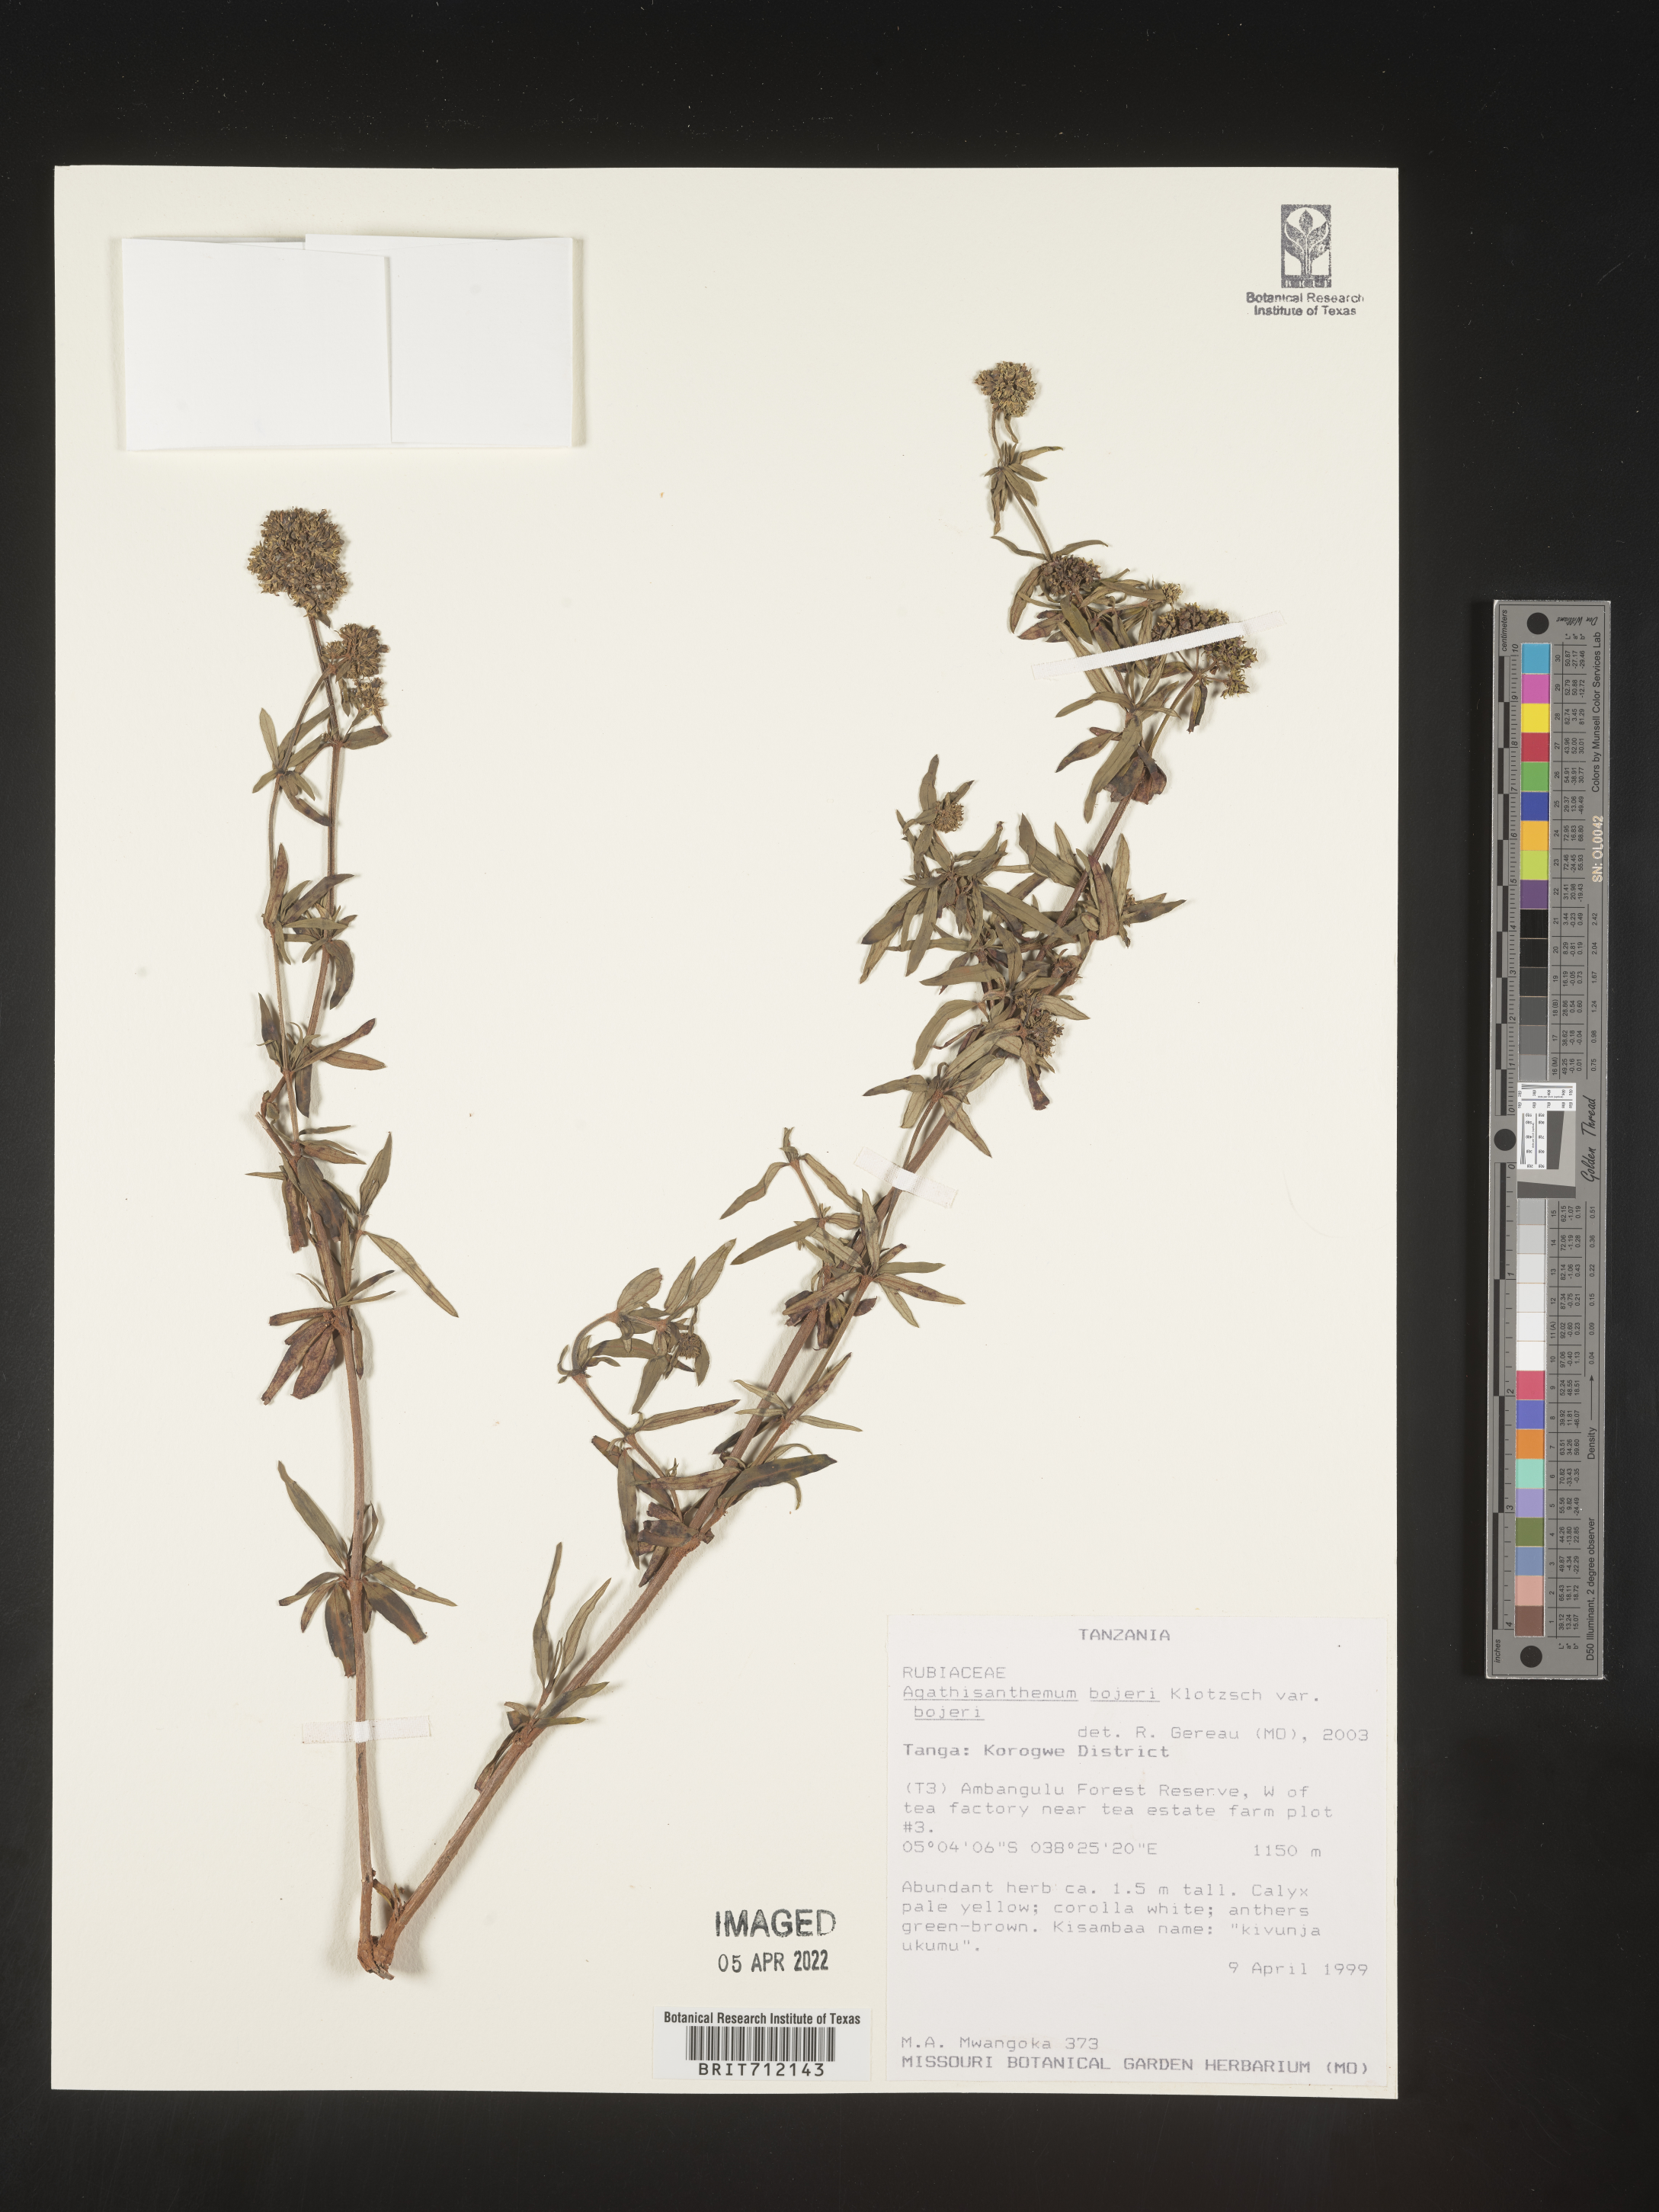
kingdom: Plantae
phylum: Tracheophyta
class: Magnoliopsida
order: Gentianales
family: Rubiaceae
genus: Agathisanthemum
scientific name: Agathisanthemum
